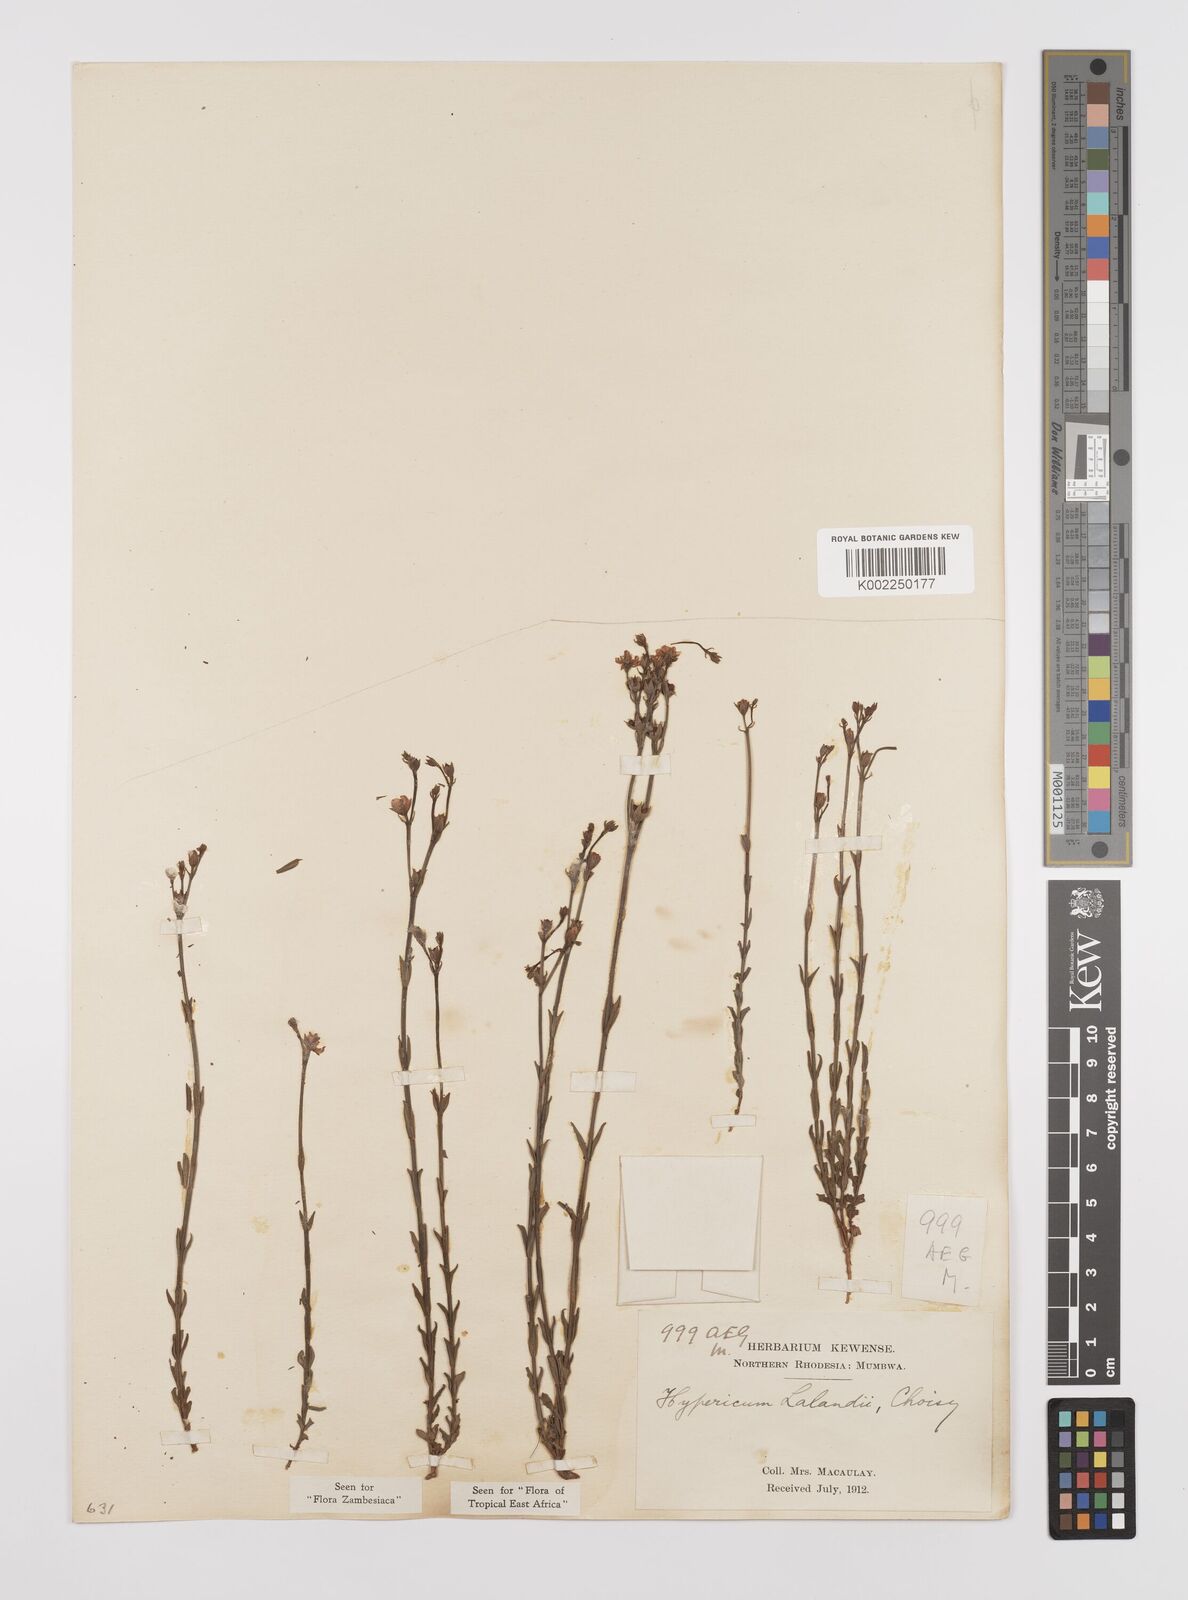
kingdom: Plantae
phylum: Tracheophyta
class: Magnoliopsida
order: Malpighiales
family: Hypericaceae
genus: Hypericum
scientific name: Hypericum lalandii
